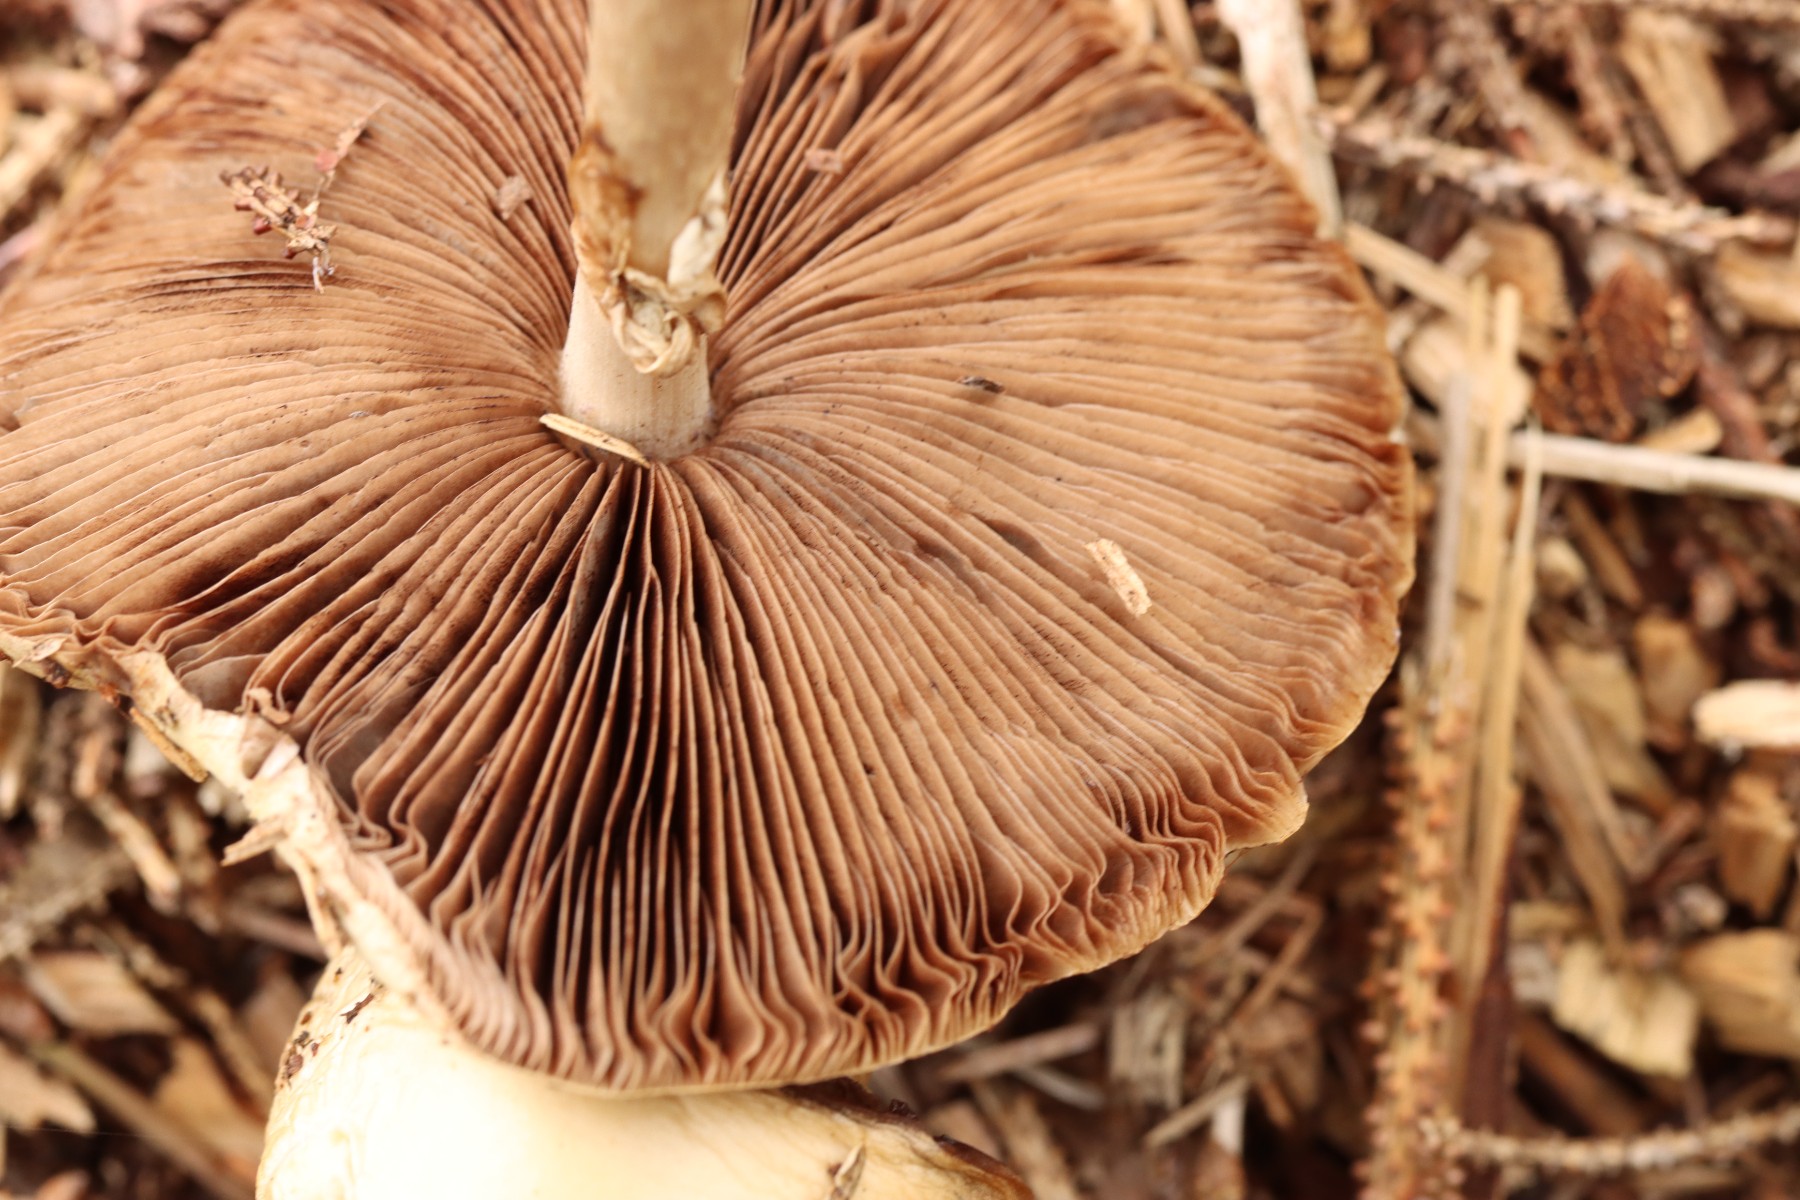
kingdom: Fungi
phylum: Basidiomycota
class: Agaricomycetes
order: Agaricales
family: Strophariaceae
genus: Agrocybe
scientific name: Agrocybe rivulosa
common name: året agerhat
